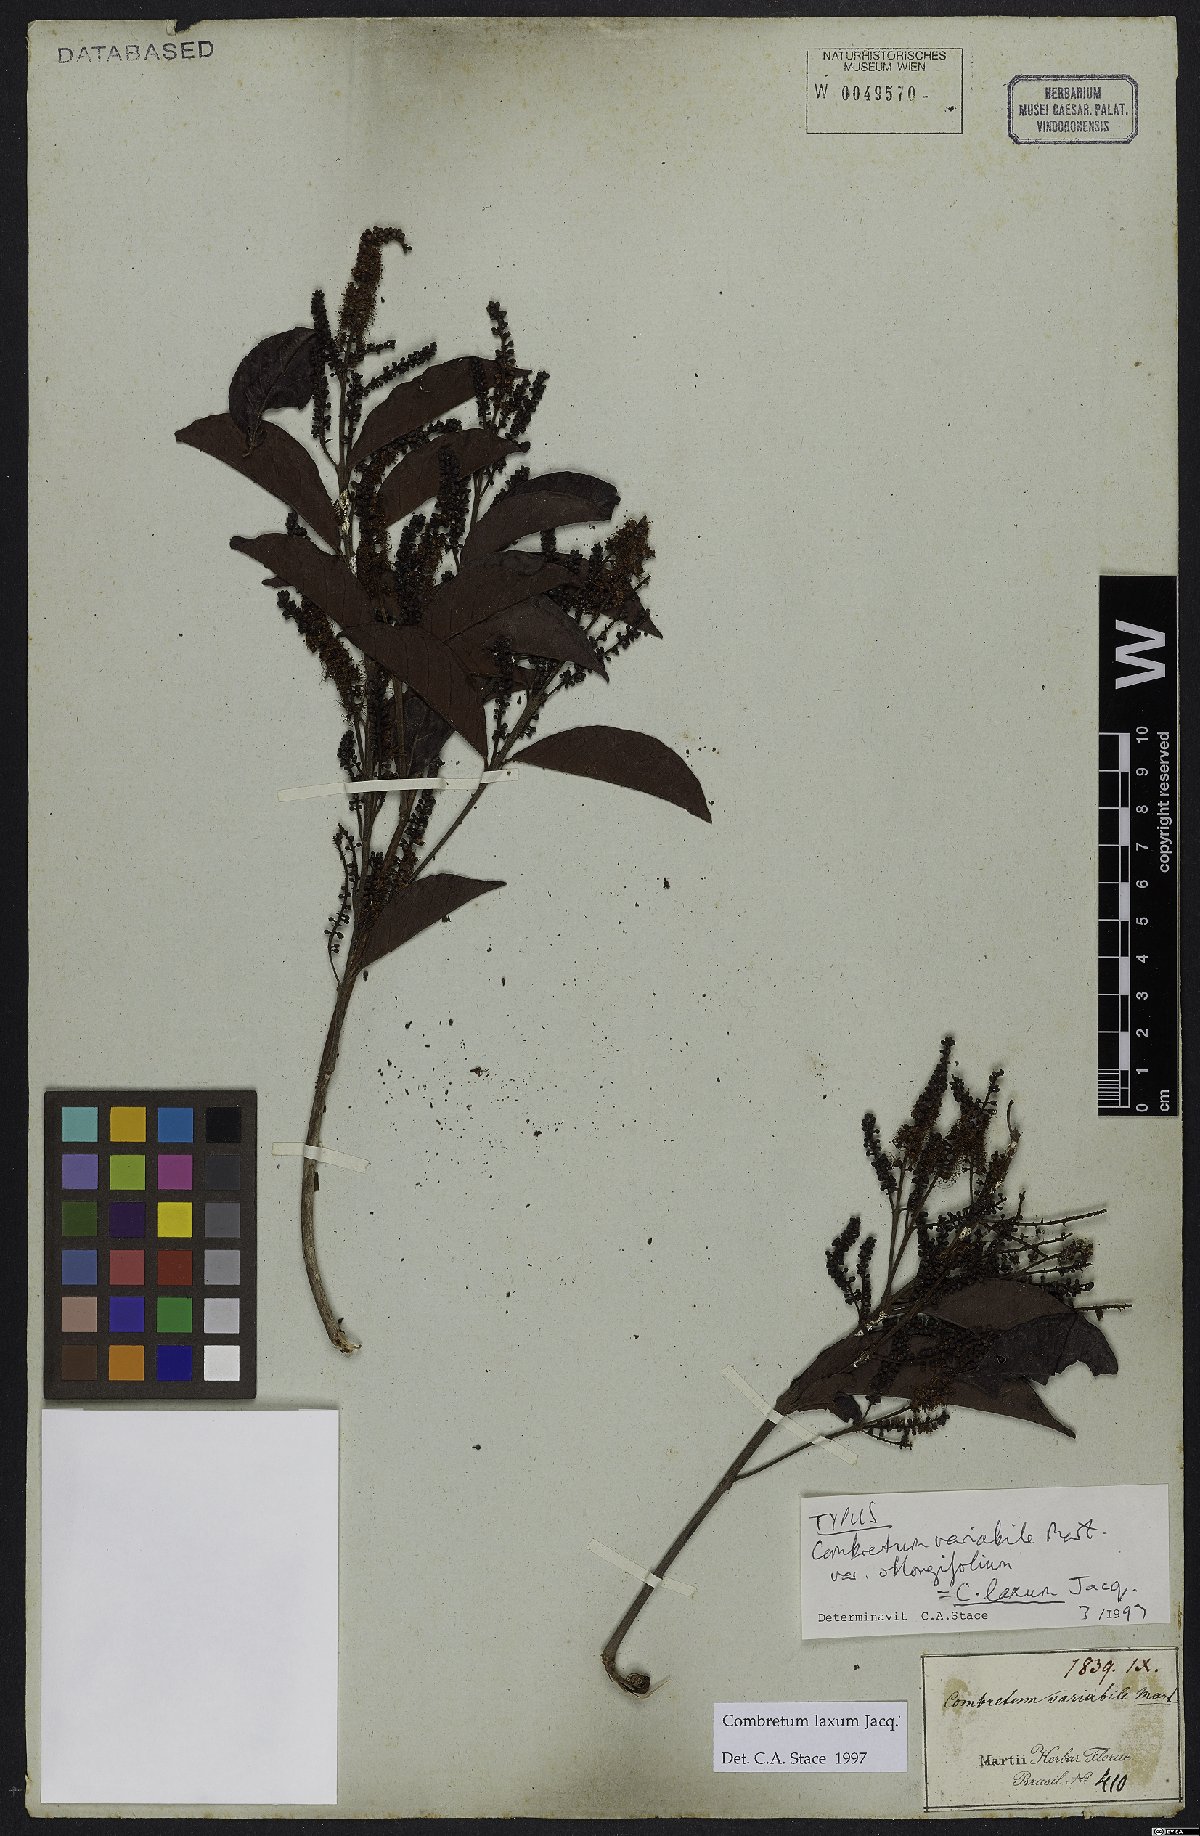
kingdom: Plantae
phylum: Tracheophyta
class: Magnoliopsida
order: Myrtales
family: Combretaceae
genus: Combretum
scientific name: Combretum laxum
